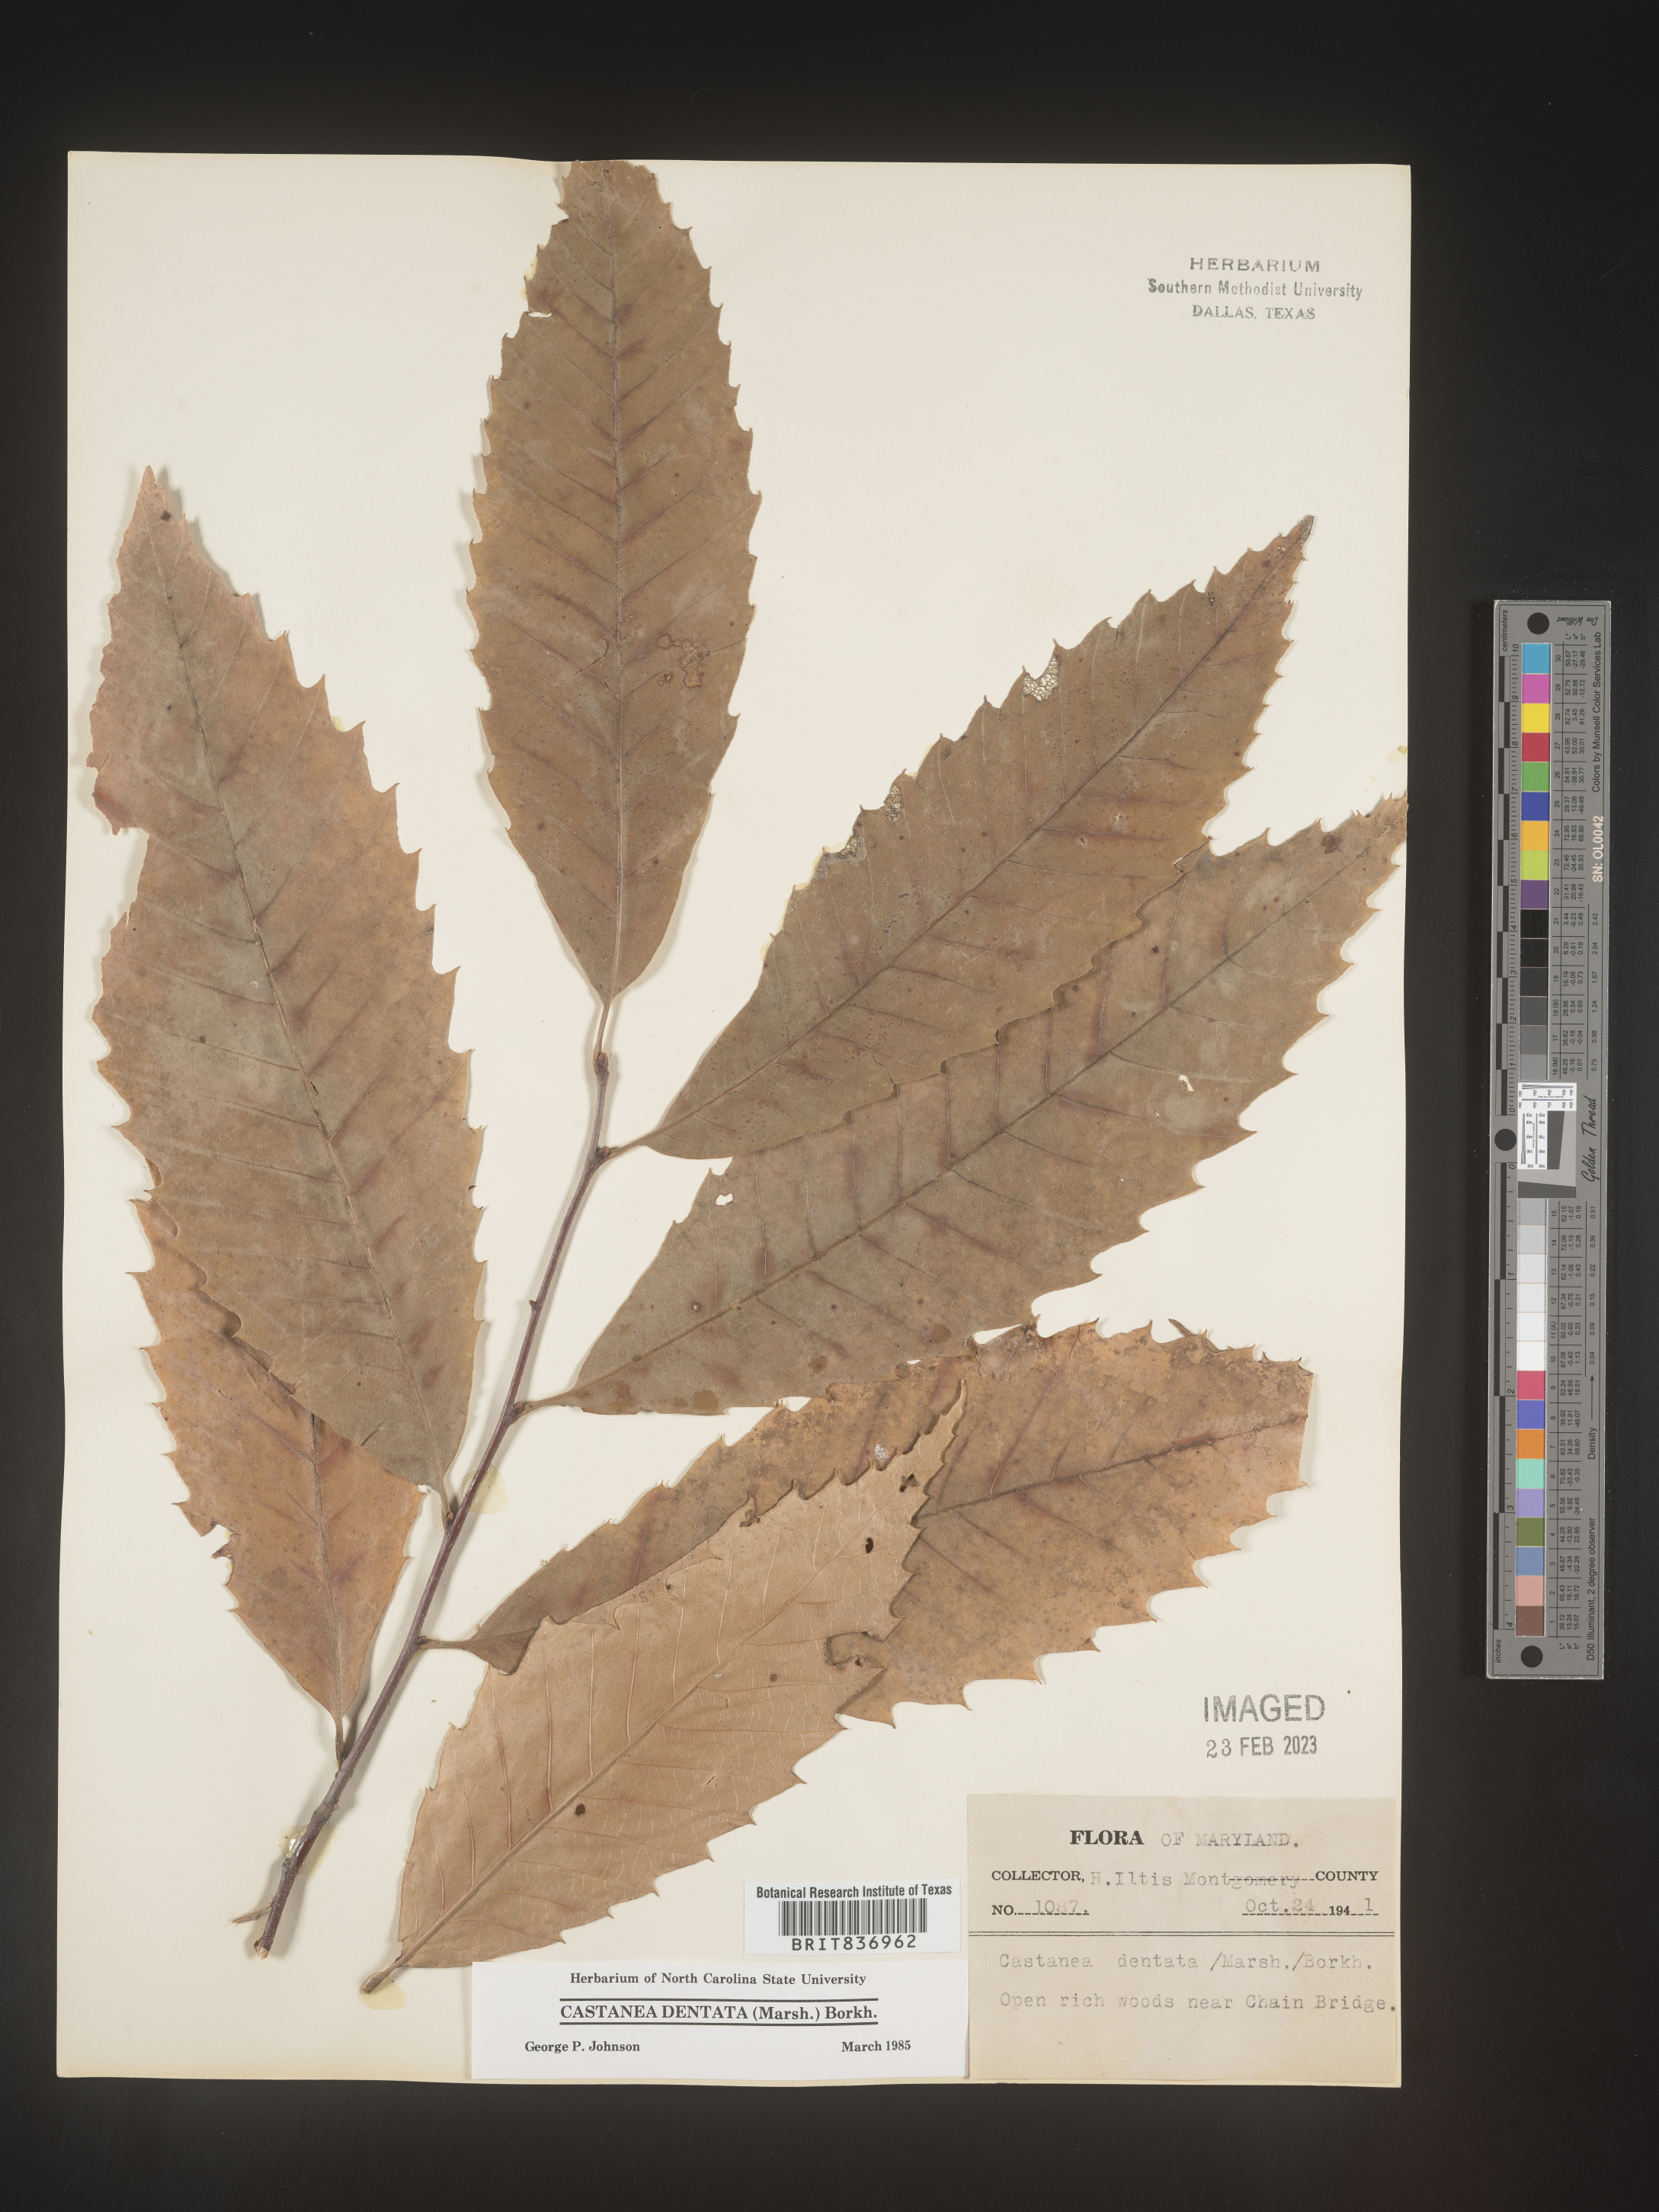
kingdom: Plantae
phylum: Tracheophyta
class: Magnoliopsida
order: Fagales
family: Fagaceae
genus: Castanea
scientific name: Castanea dentata
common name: American chestnut
